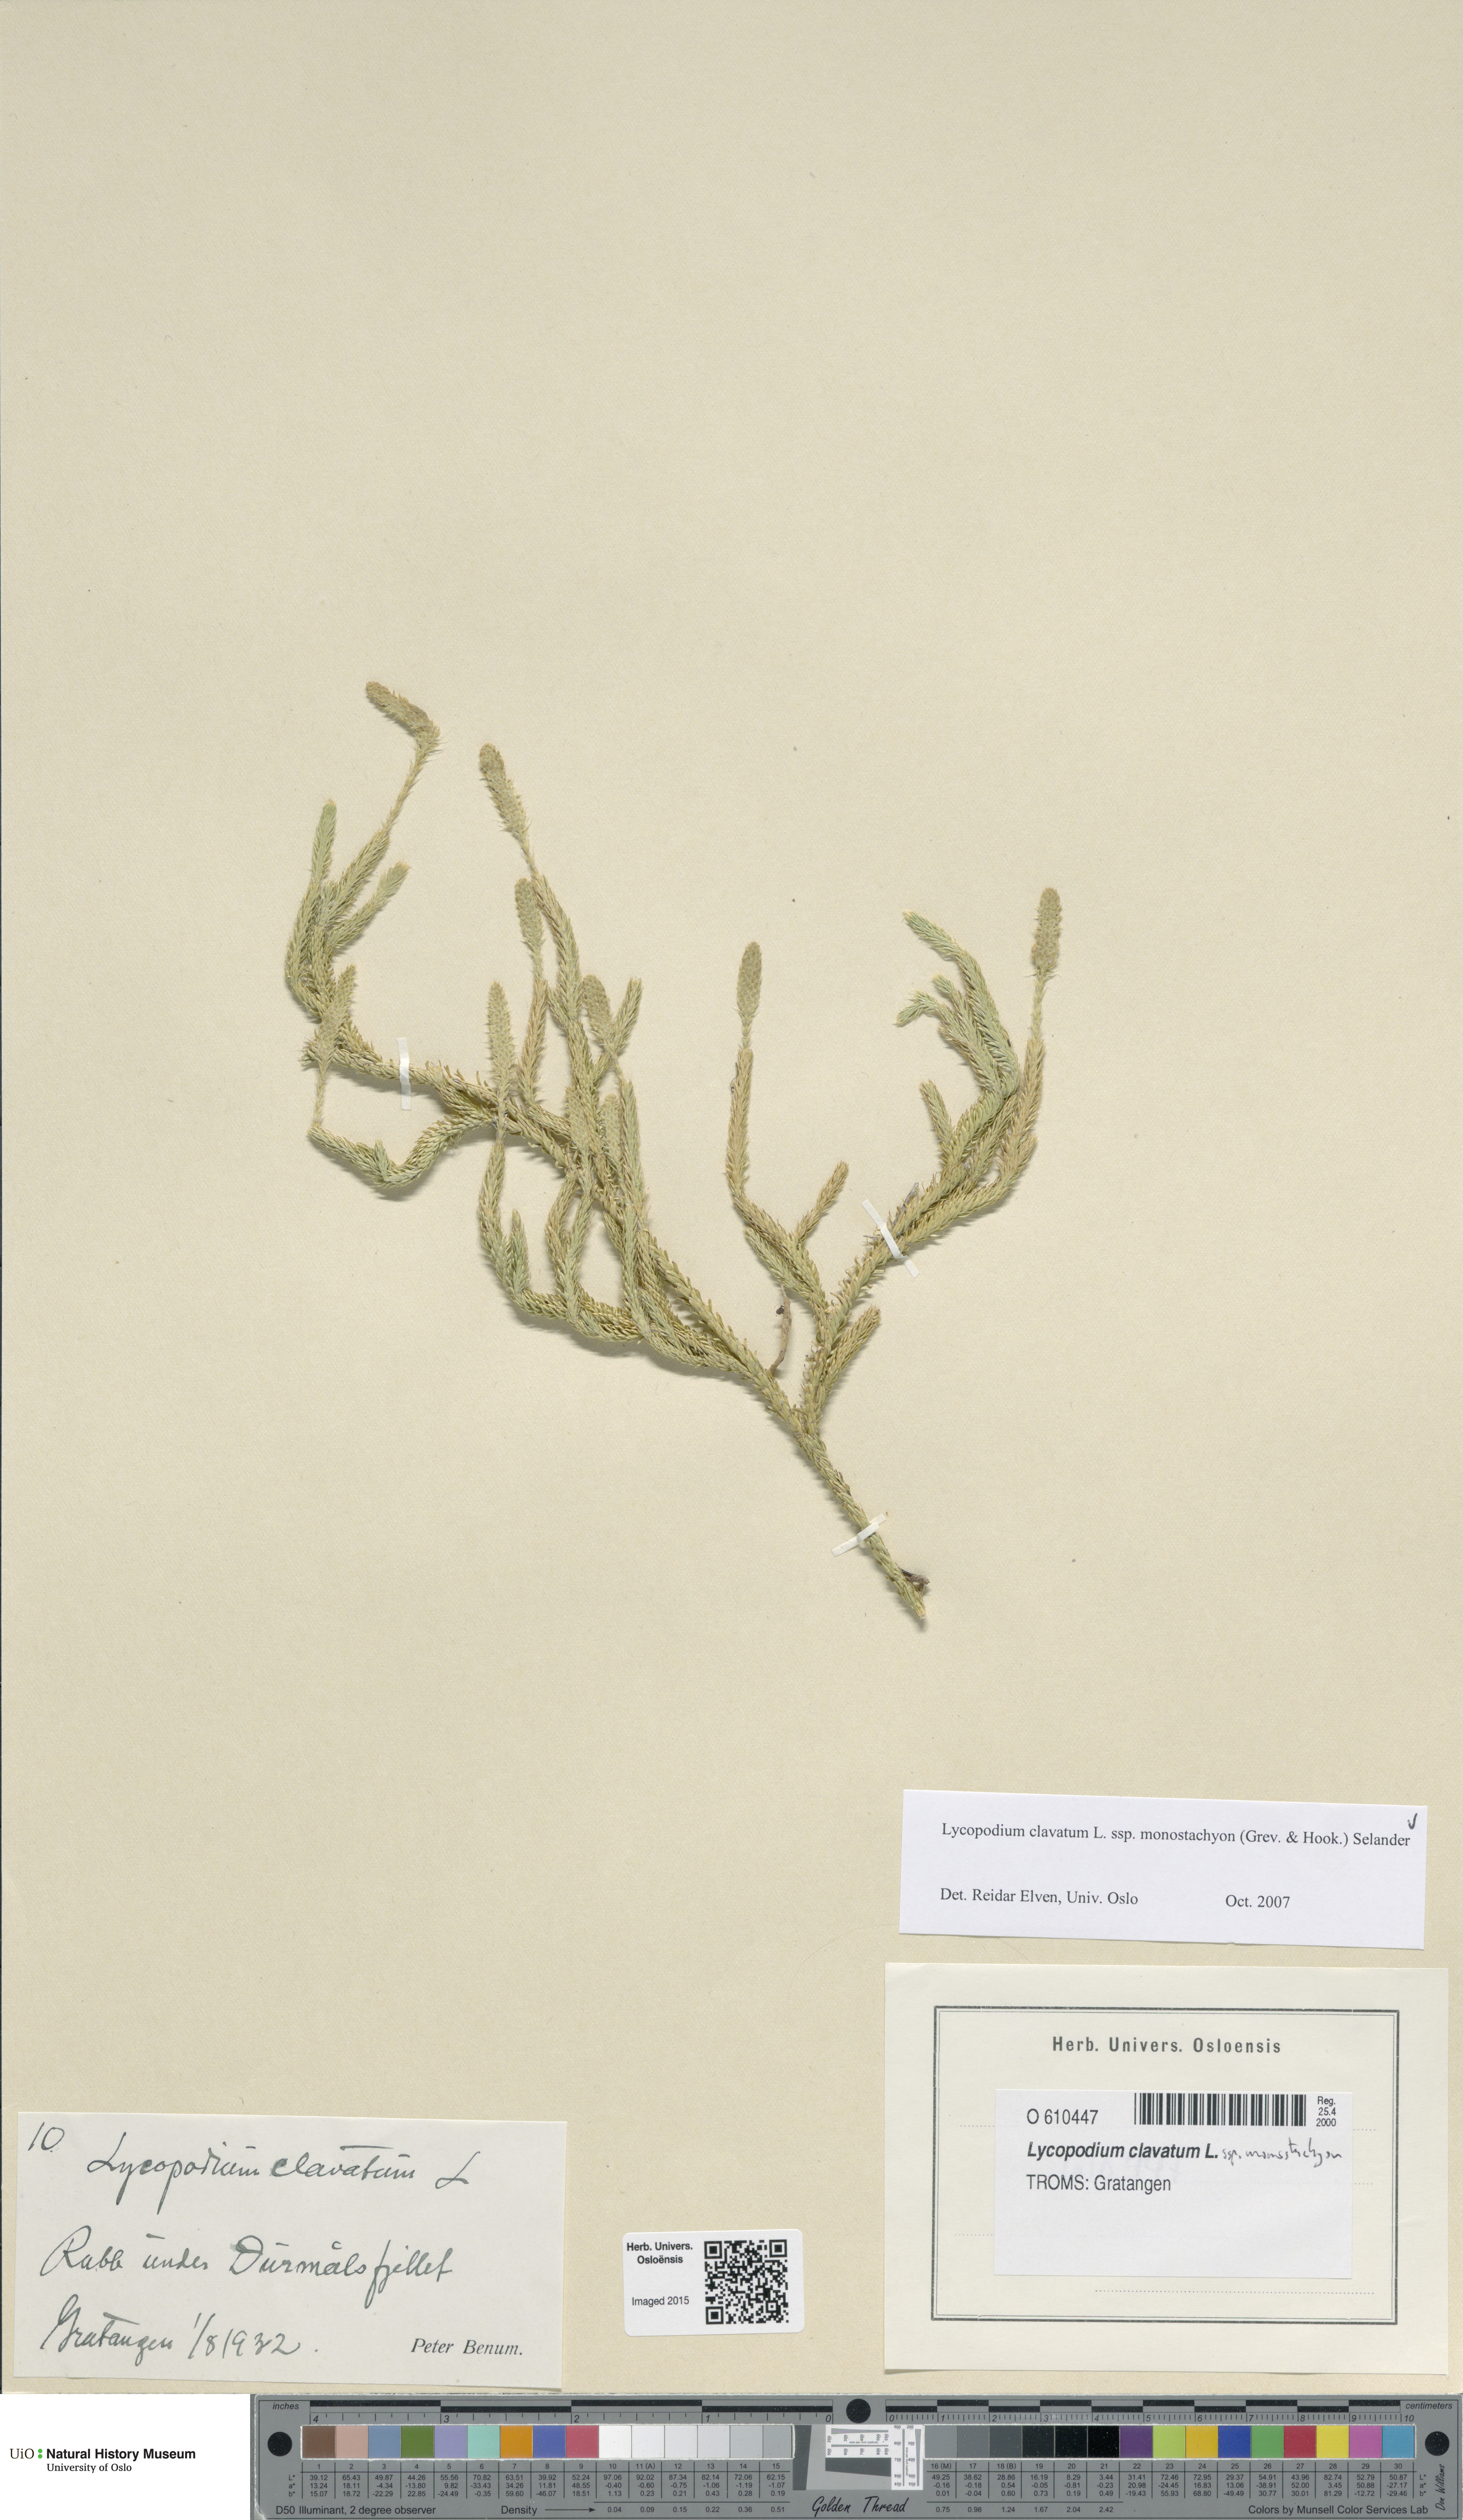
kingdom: Plantae
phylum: Tracheophyta
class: Lycopodiopsida
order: Lycopodiales
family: Lycopodiaceae
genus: Lycopodium
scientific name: Lycopodium lagopus
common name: One-cone clubmoss
